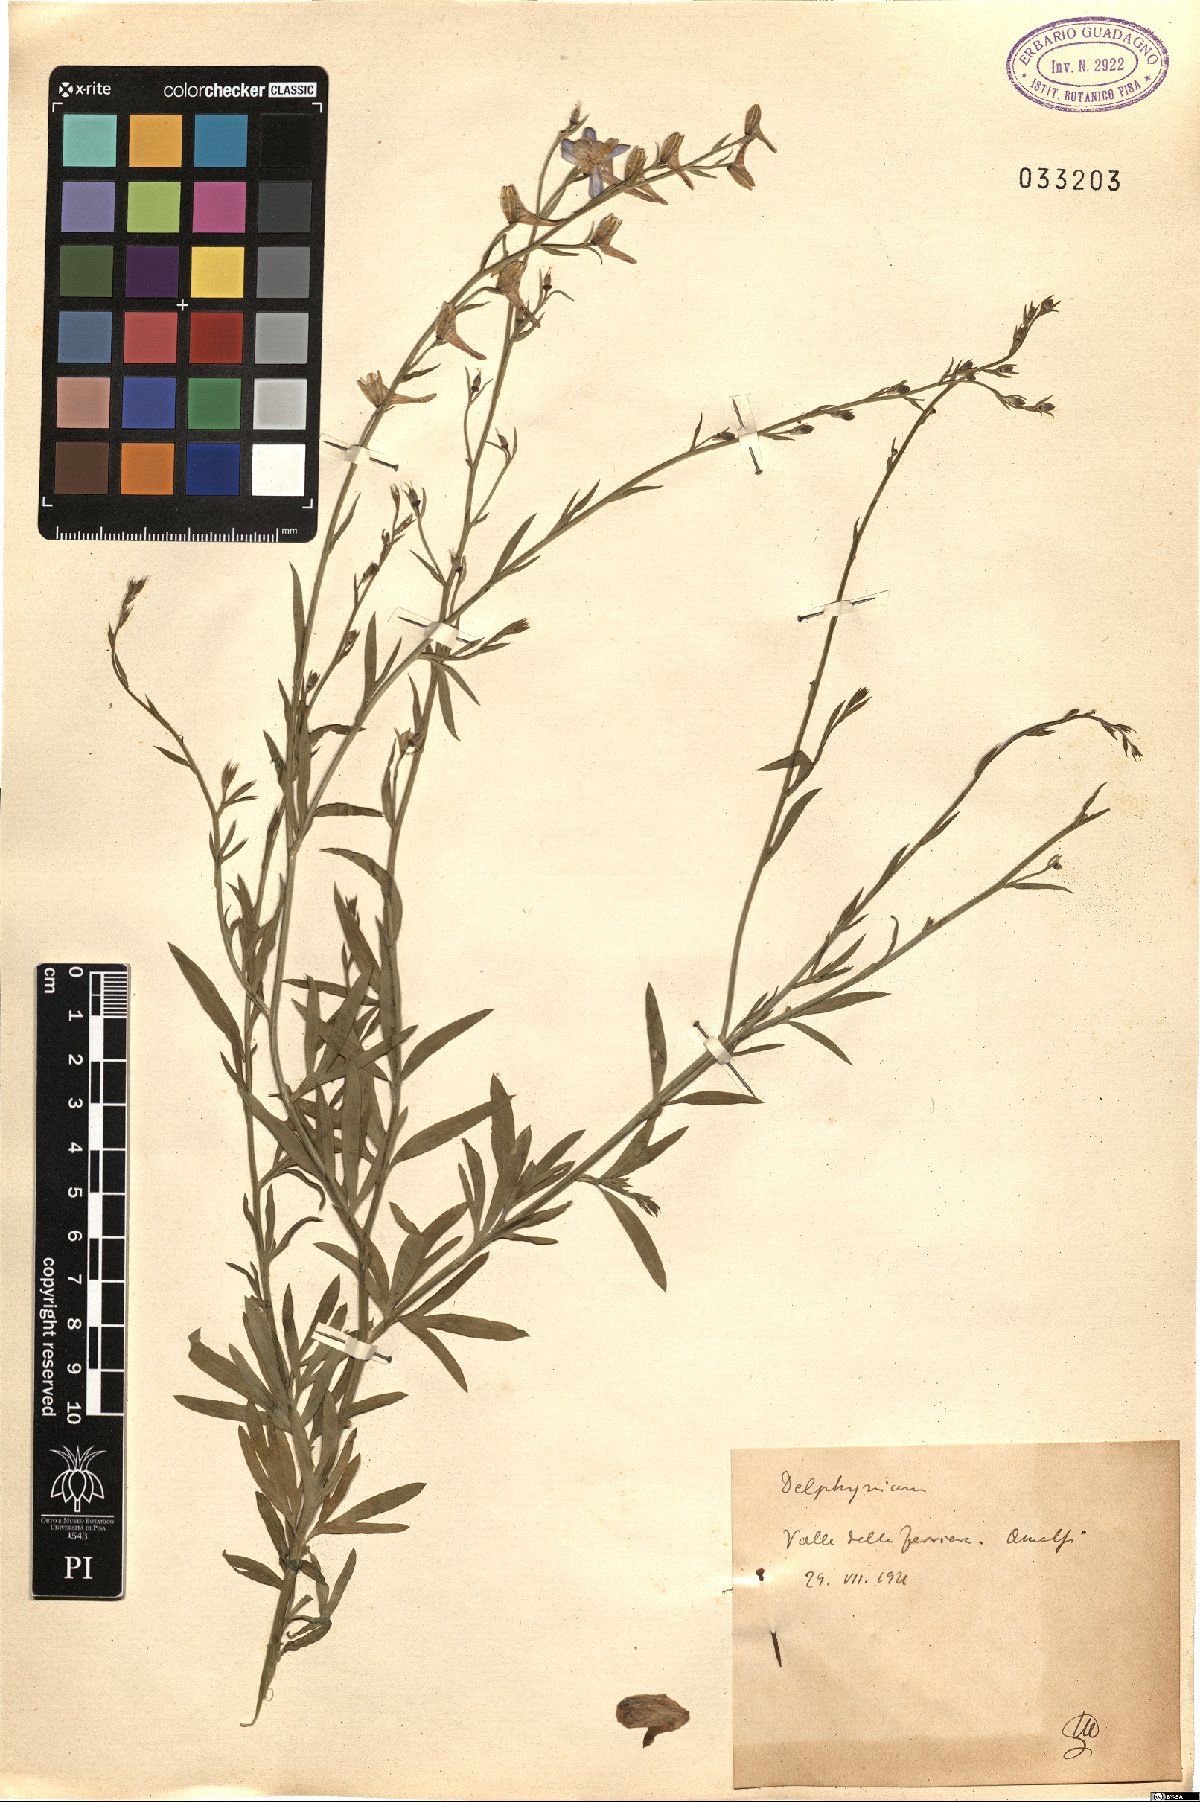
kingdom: Plantae
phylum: Tracheophyta
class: Magnoliopsida
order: Ranunculales
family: Ranunculaceae
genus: Delphinium
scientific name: Delphinium
